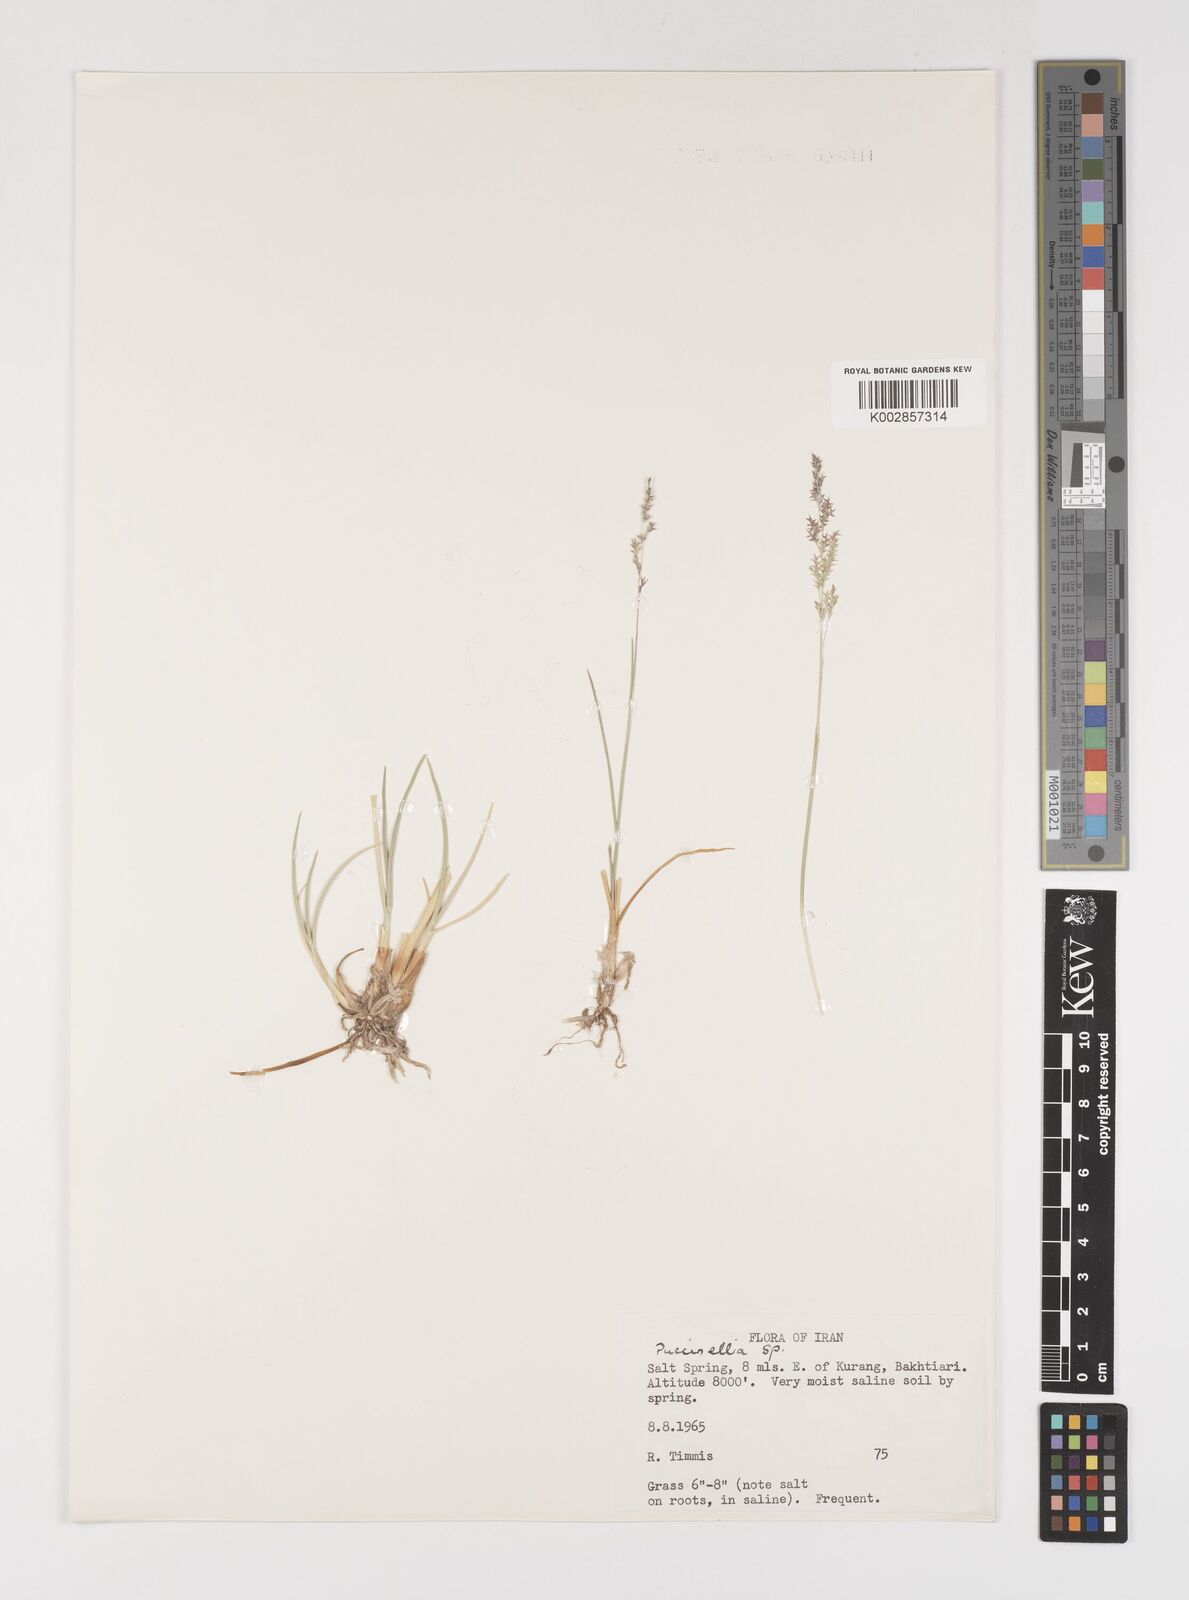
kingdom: Plantae
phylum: Tracheophyta
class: Liliopsida
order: Poales
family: Poaceae
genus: Puccinellia
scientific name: Puccinellia
